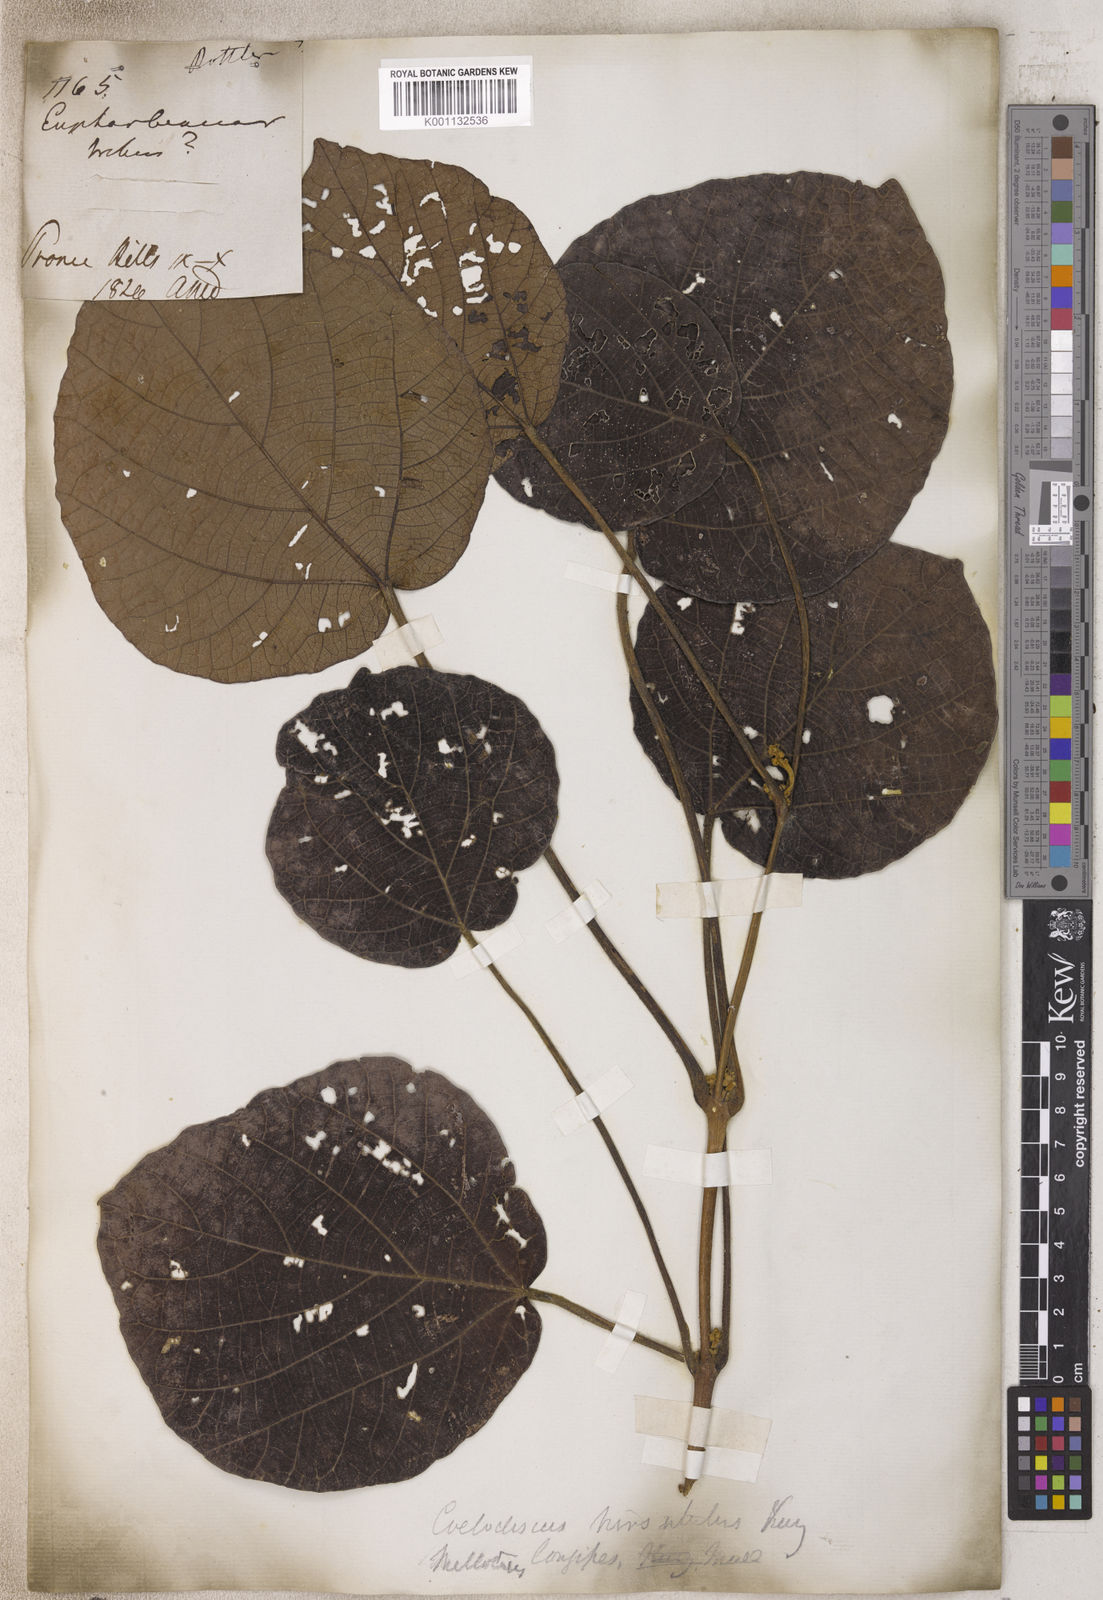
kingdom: Plantae
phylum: Tracheophyta
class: Magnoliopsida
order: Malpighiales
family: Euphorbiaceae
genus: Mallotus
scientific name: Mallotus
